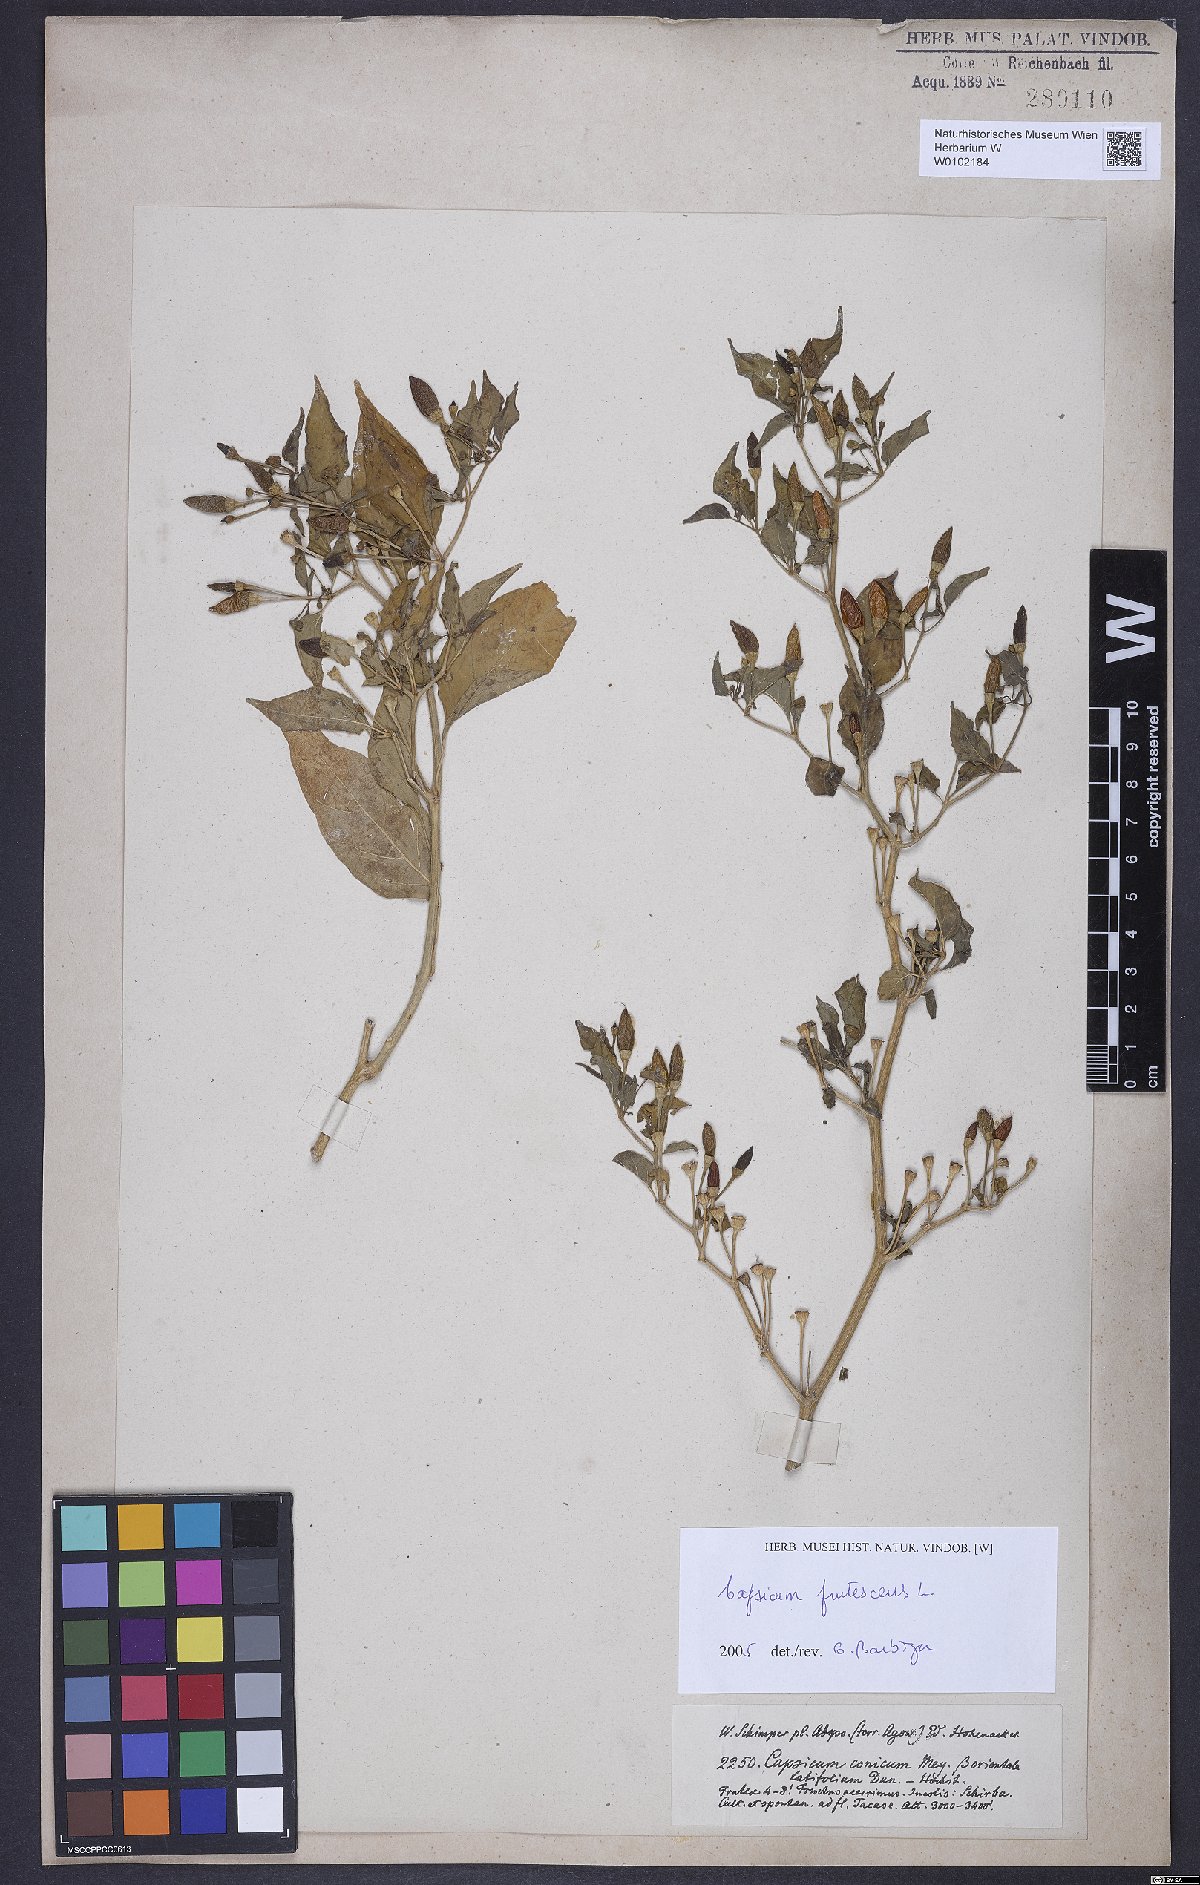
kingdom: Plantae
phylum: Tracheophyta
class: Magnoliopsida
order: Solanales
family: Solanaceae
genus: Capsicum
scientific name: Capsicum frutescens
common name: Bird pepper
